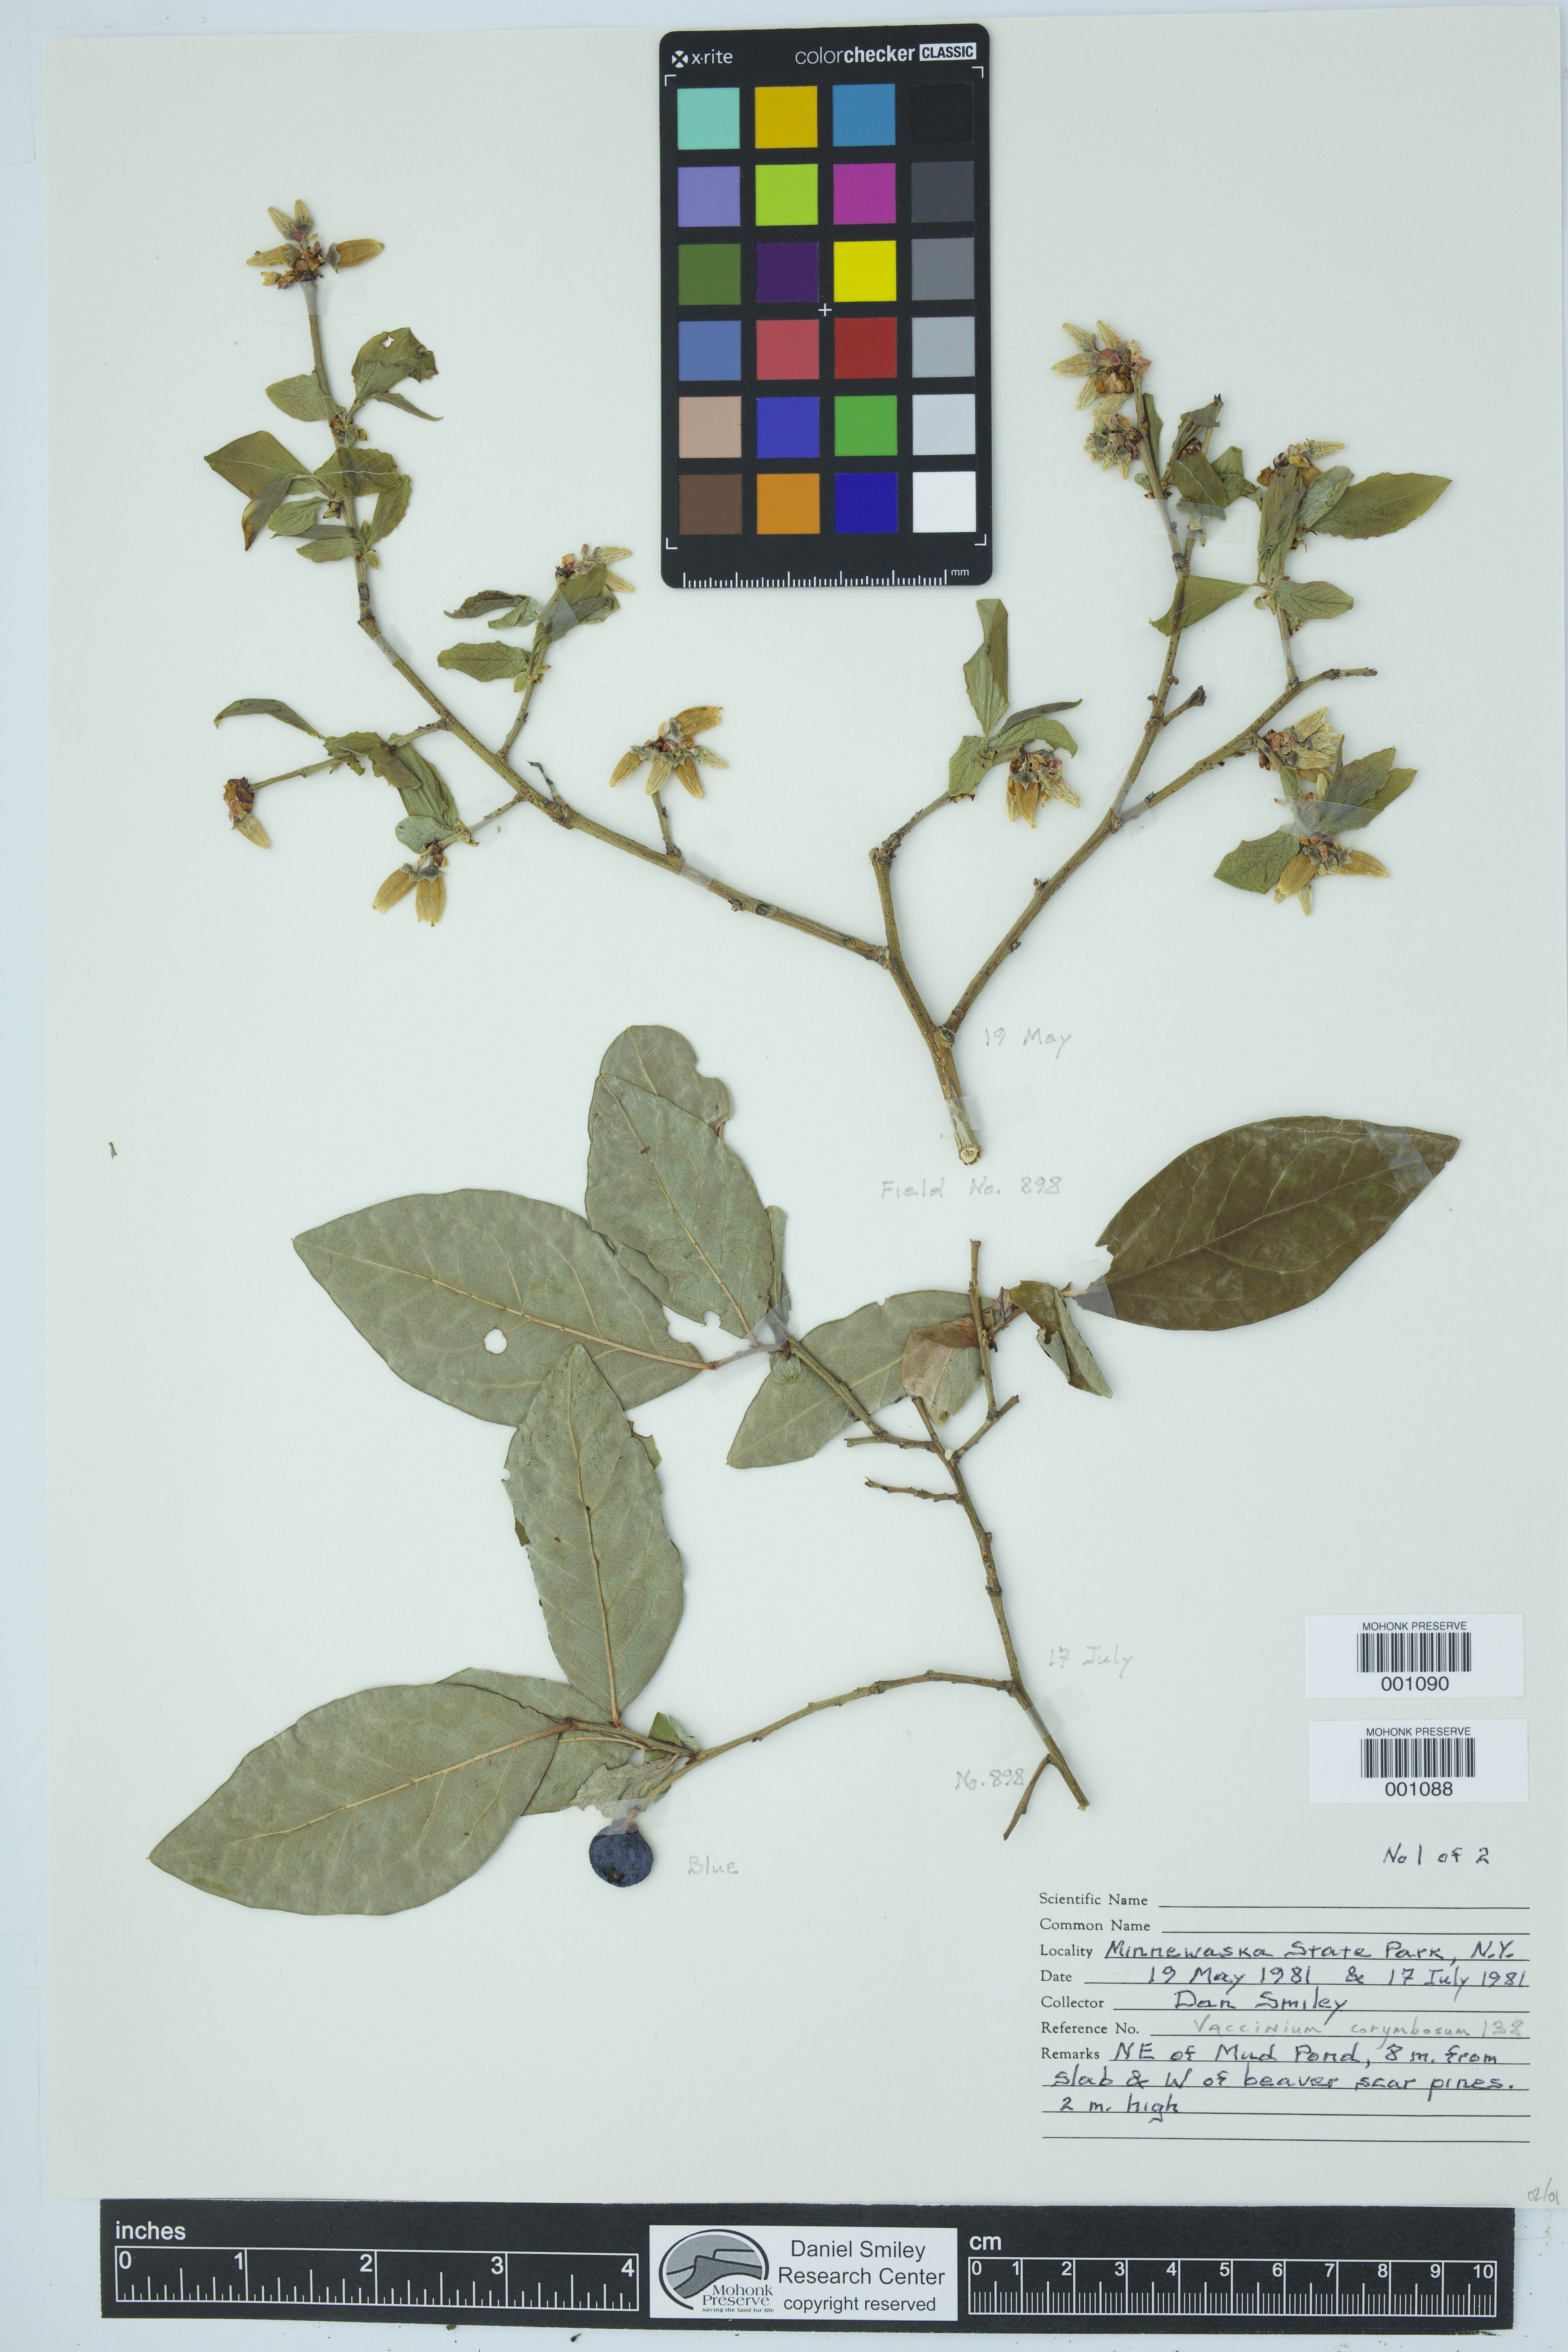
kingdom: Plantae
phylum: Tracheophyta
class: Magnoliopsida
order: Ericales
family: Ericaceae
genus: Vaccinium
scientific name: Vaccinium corymbosum
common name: Blueberry
